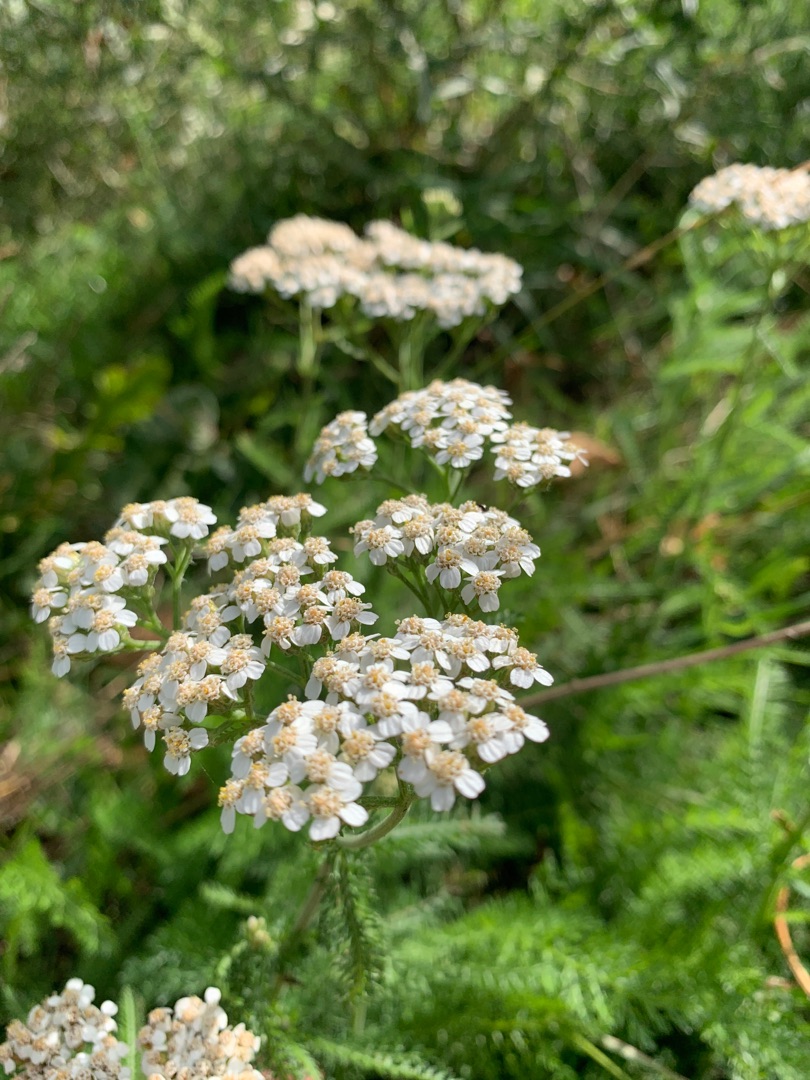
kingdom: Plantae
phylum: Tracheophyta
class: Magnoliopsida
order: Asterales
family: Asteraceae
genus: Achillea
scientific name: Achillea millefolium
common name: Almindelig røllike
